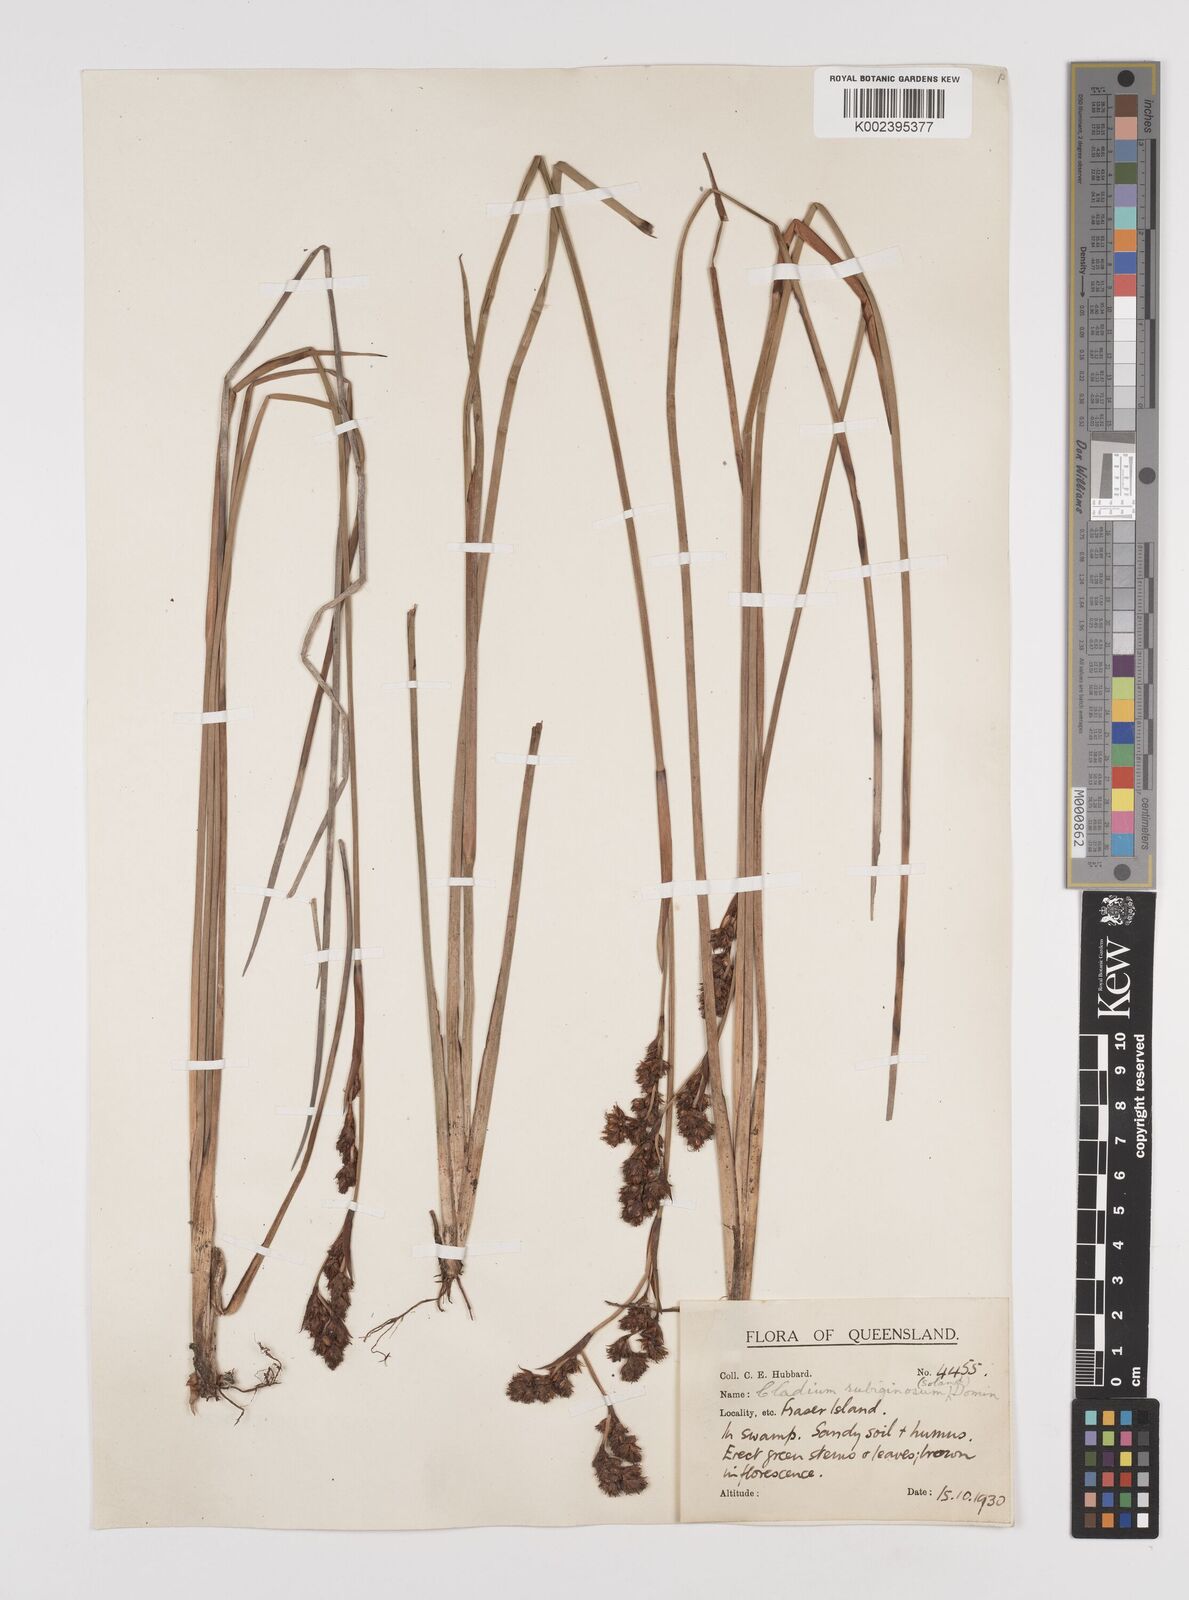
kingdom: Plantae
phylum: Tracheophyta
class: Liliopsida
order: Poales
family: Cyperaceae
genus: Machaerina
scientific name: Machaerina rubiginosa
